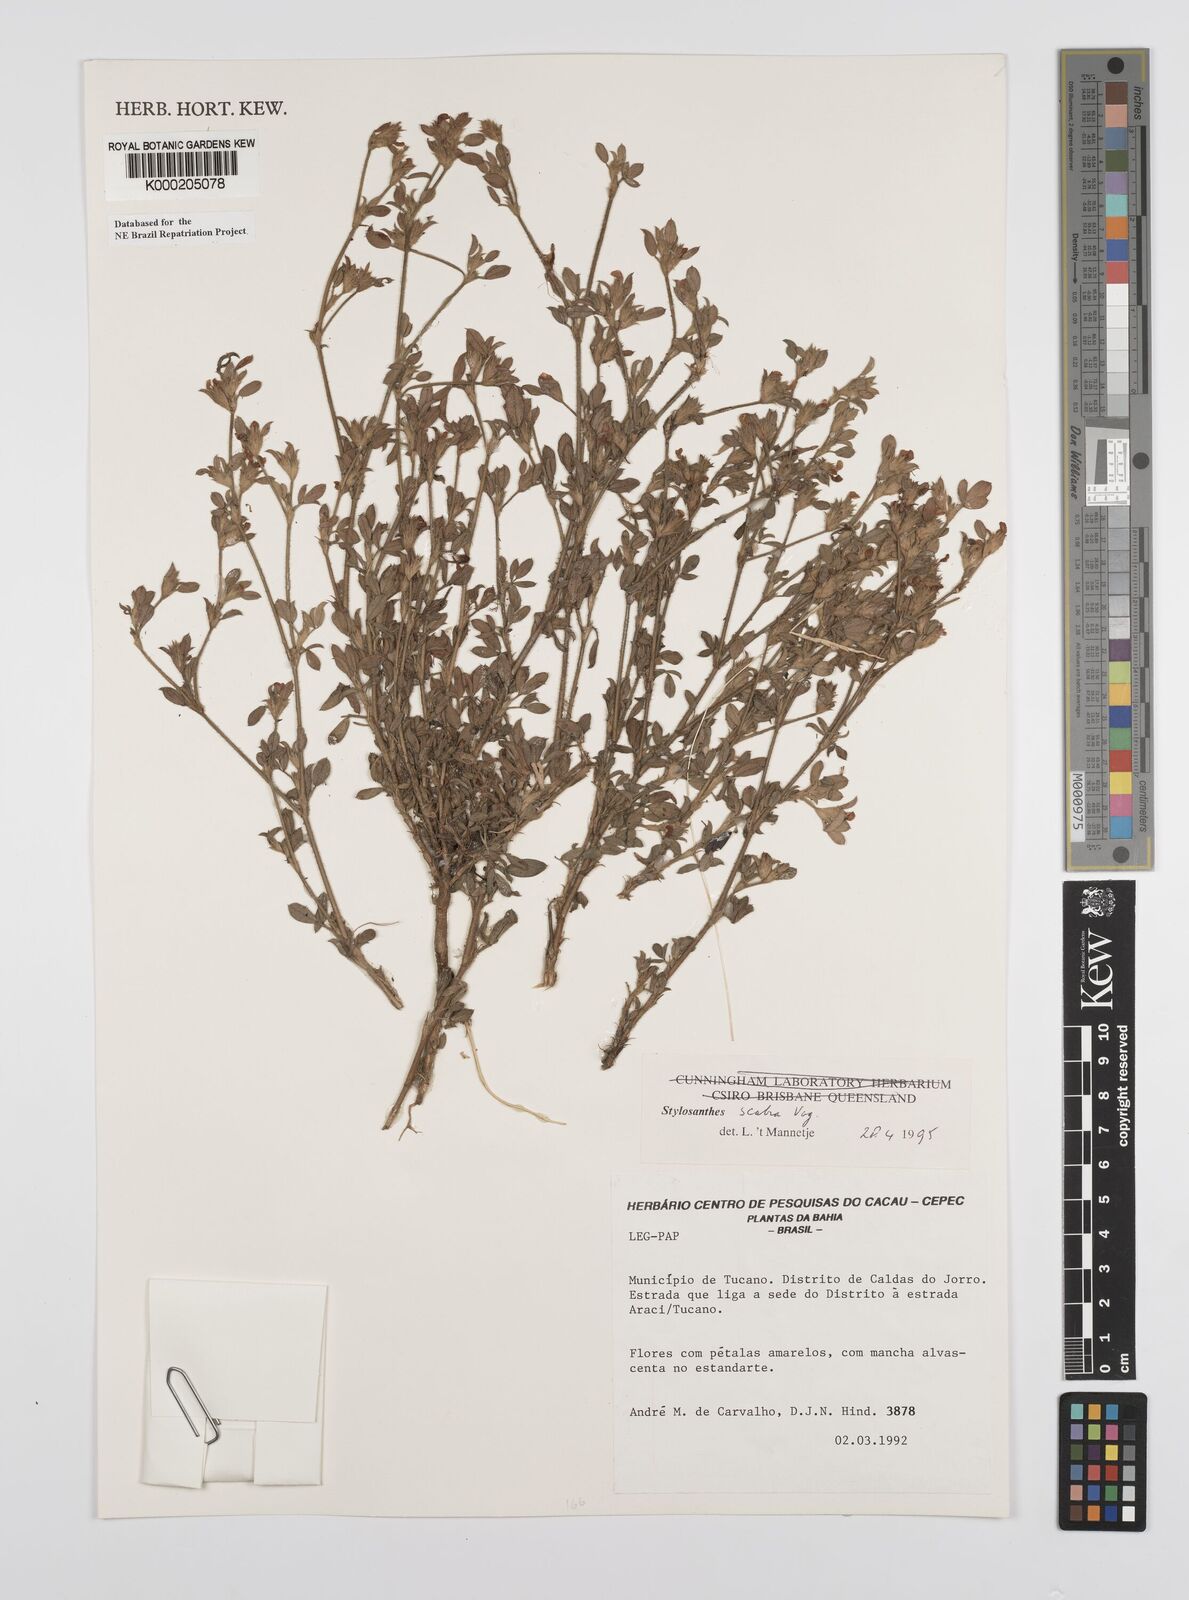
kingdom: Plantae
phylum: Tracheophyta
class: Magnoliopsida
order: Fabales
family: Fabaceae
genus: Stylosanthes
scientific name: Stylosanthes scabra
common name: Pencilflower
